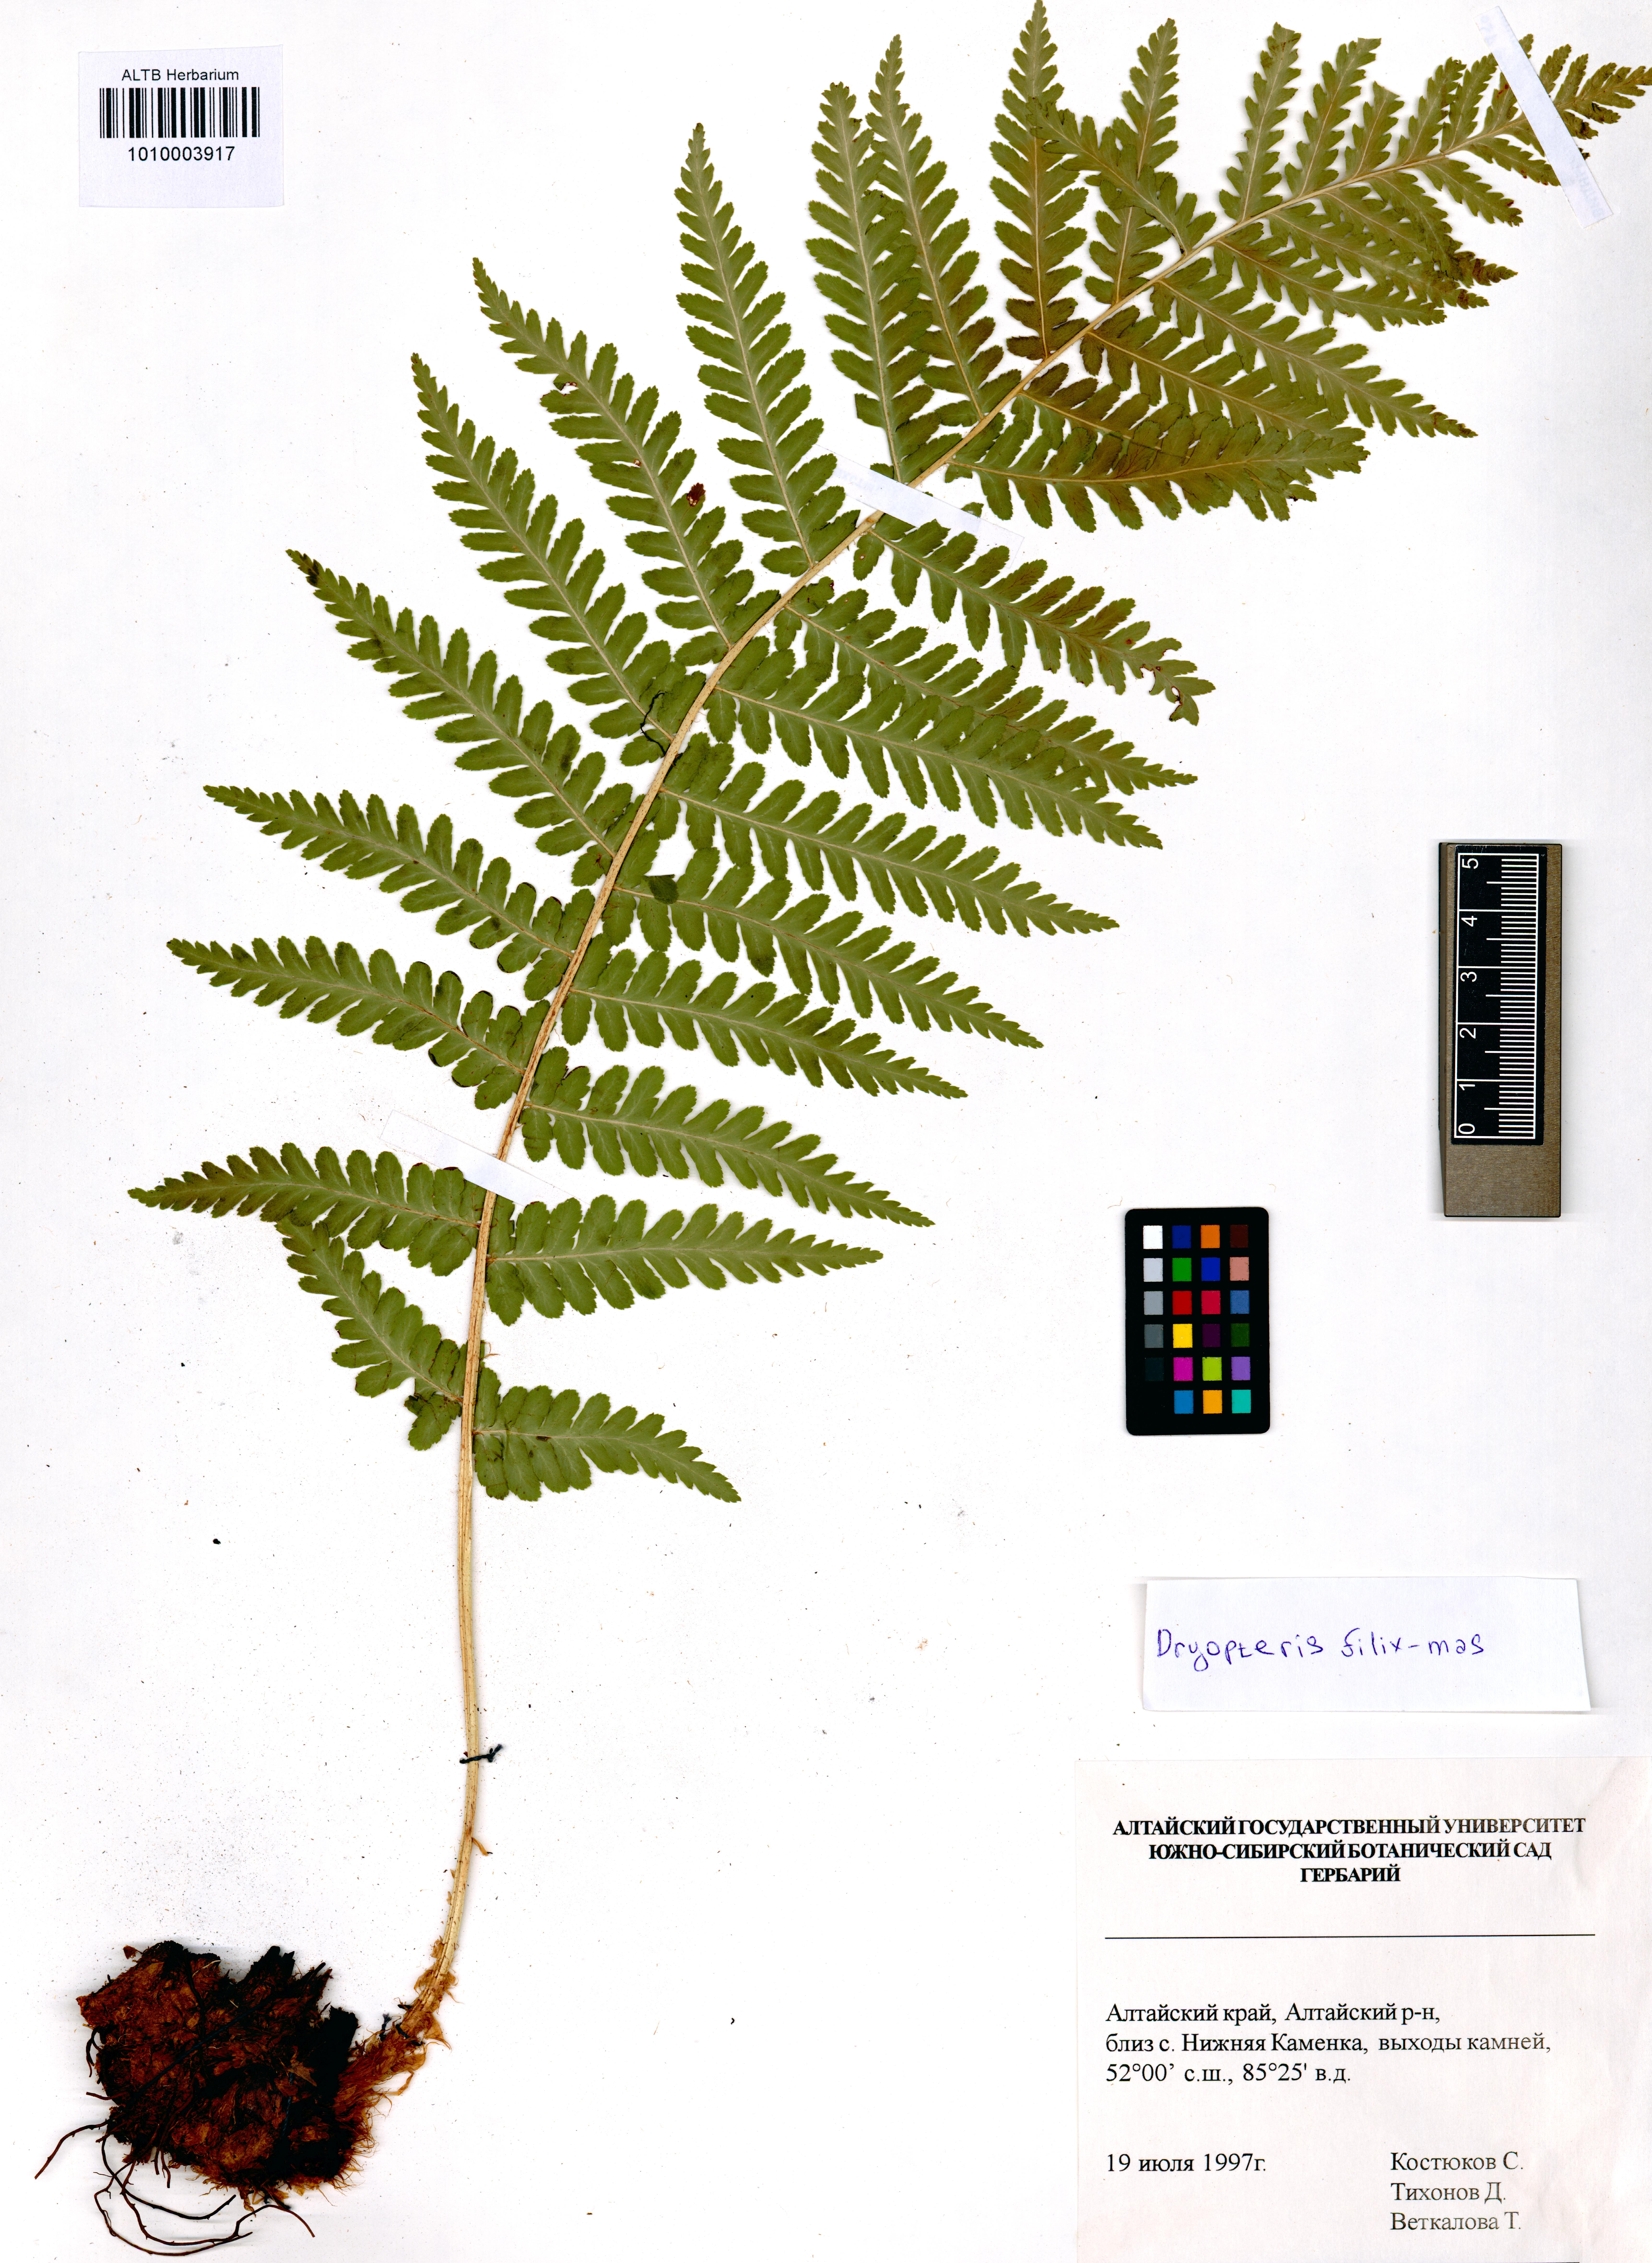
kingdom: Plantae
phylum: Tracheophyta
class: Polypodiopsida
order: Polypodiales
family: Dryopteridaceae
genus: Dryopteris
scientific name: Dryopteris filix-mas
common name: Male fern
